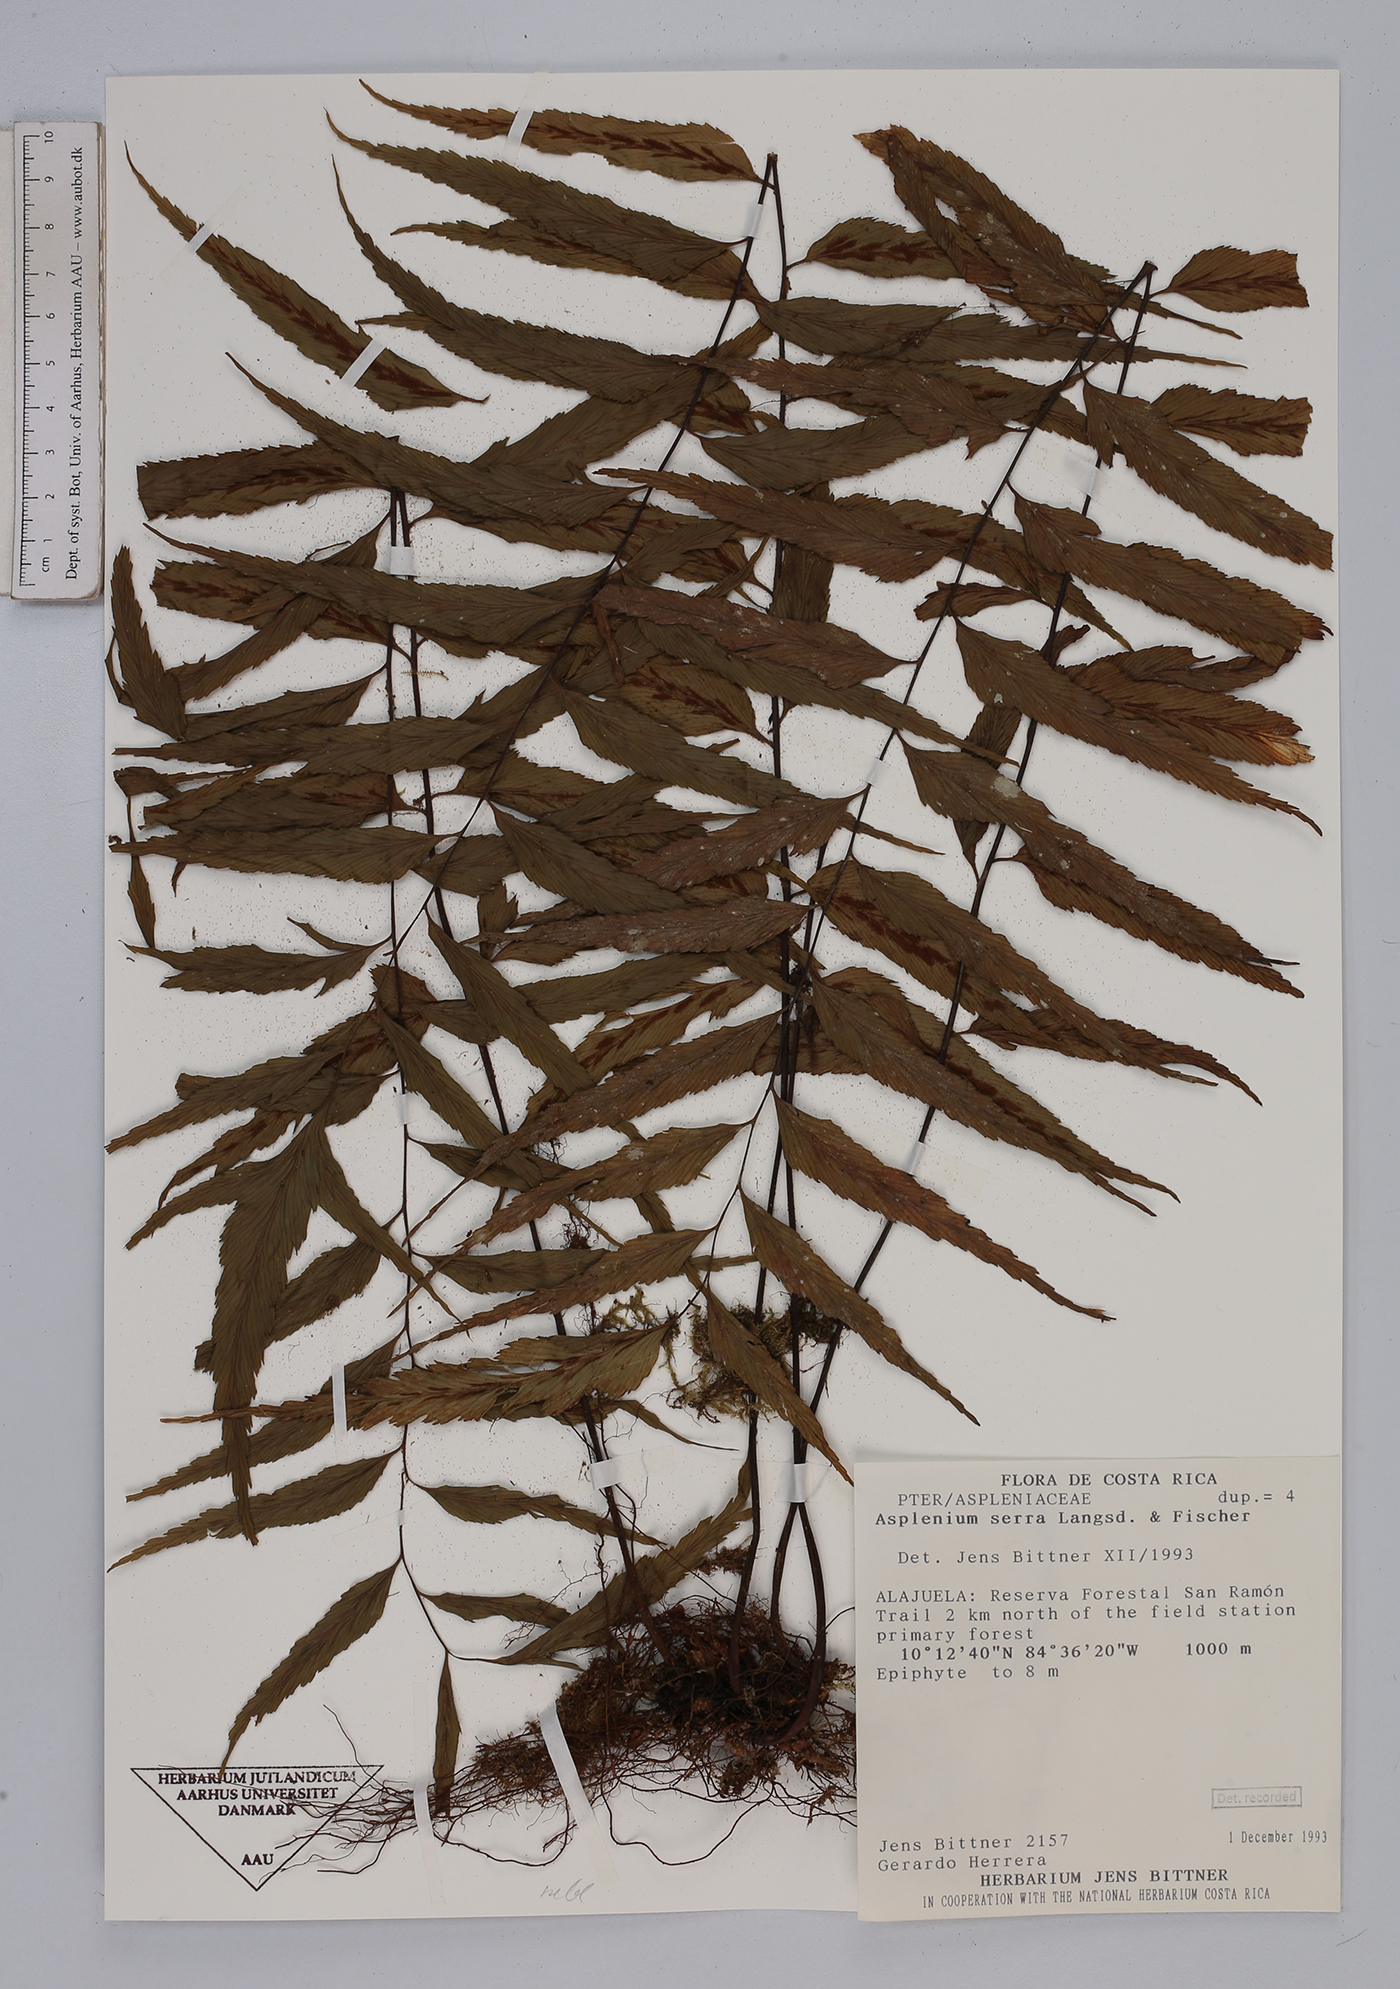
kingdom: Plantae
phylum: Tracheophyta
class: Polypodiopsida
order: Polypodiales
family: Aspleniaceae
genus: Asplenium
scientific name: Asplenium serra
